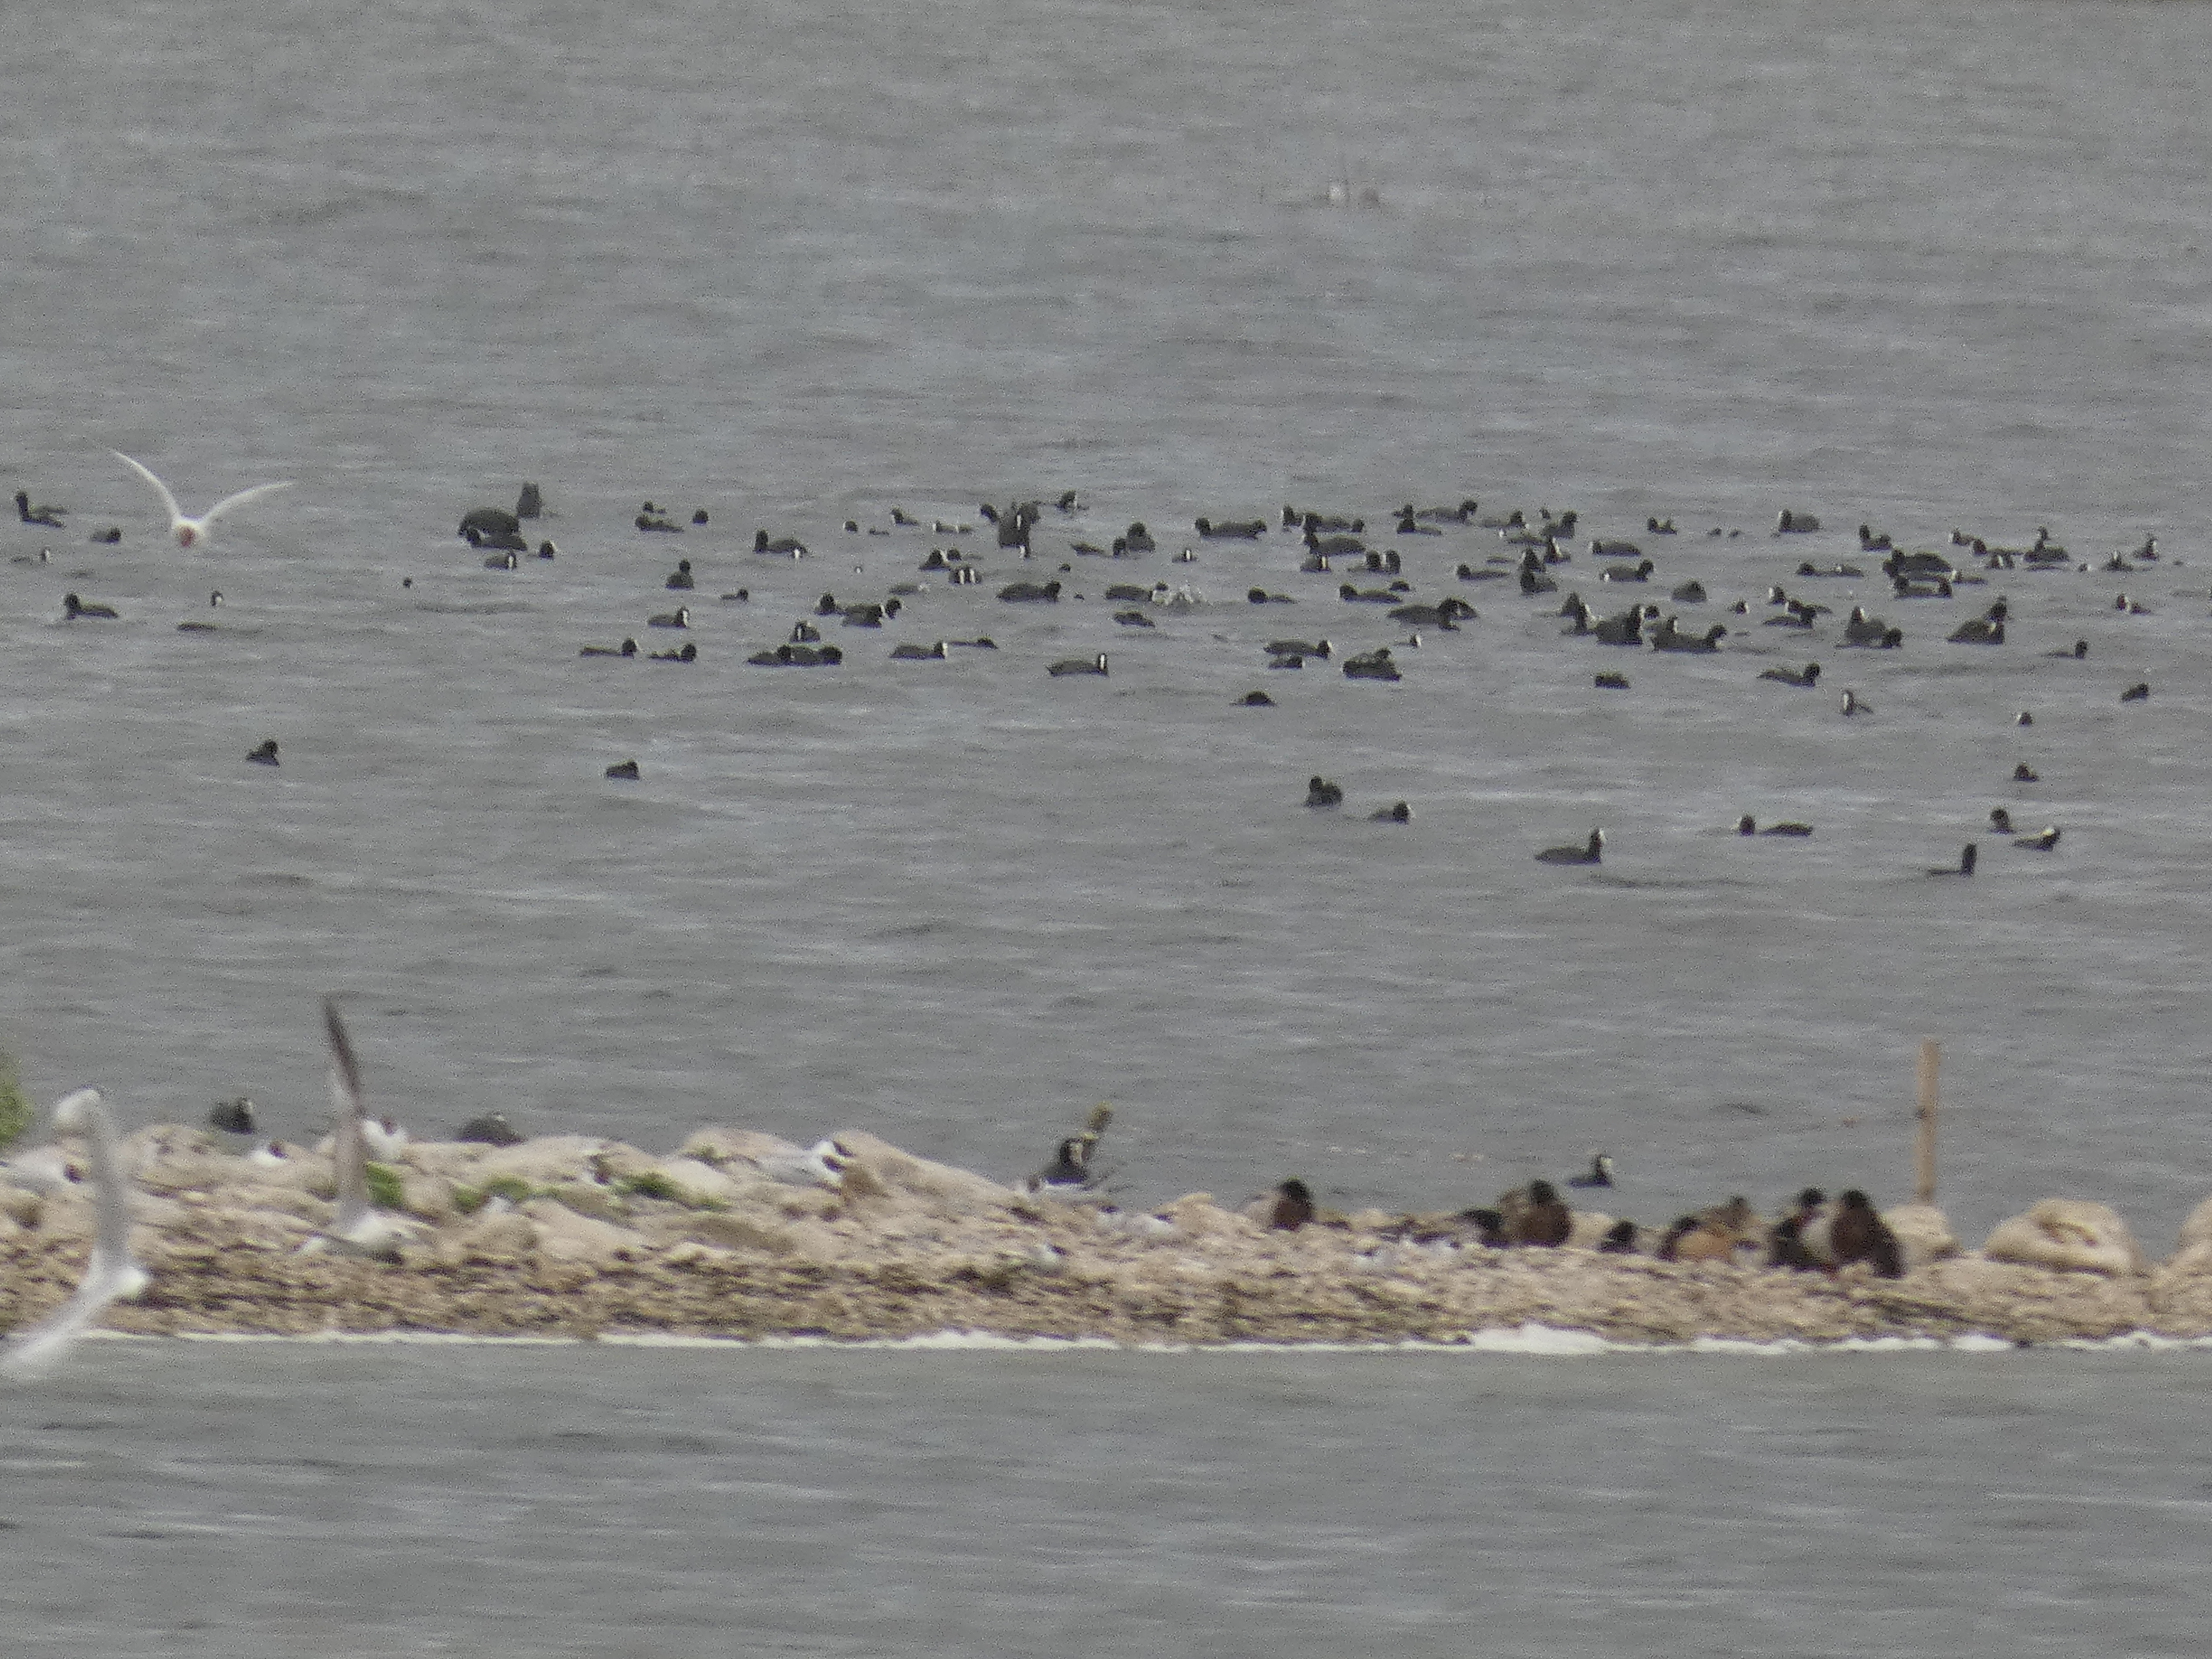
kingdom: Animalia
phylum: Chordata
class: Aves
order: Gruiformes
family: Rallidae
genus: Fulica
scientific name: Fulica atra
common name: Blishøne
